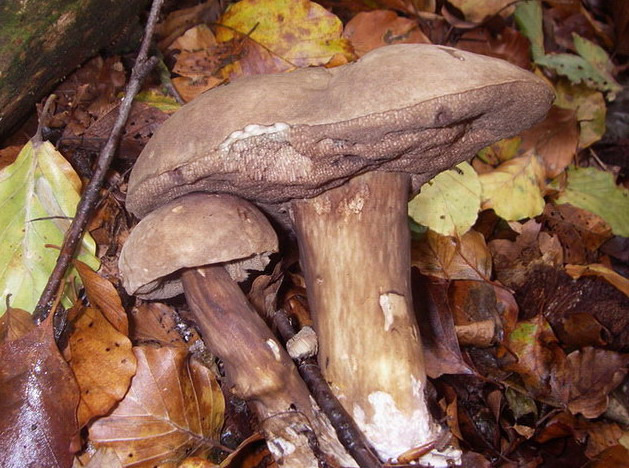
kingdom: Fungi
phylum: Basidiomycota
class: Agaricomycetes
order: Boletales
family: Boletaceae
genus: Porphyrellus
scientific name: Porphyrellus porphyrosporus
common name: sodrørhat
